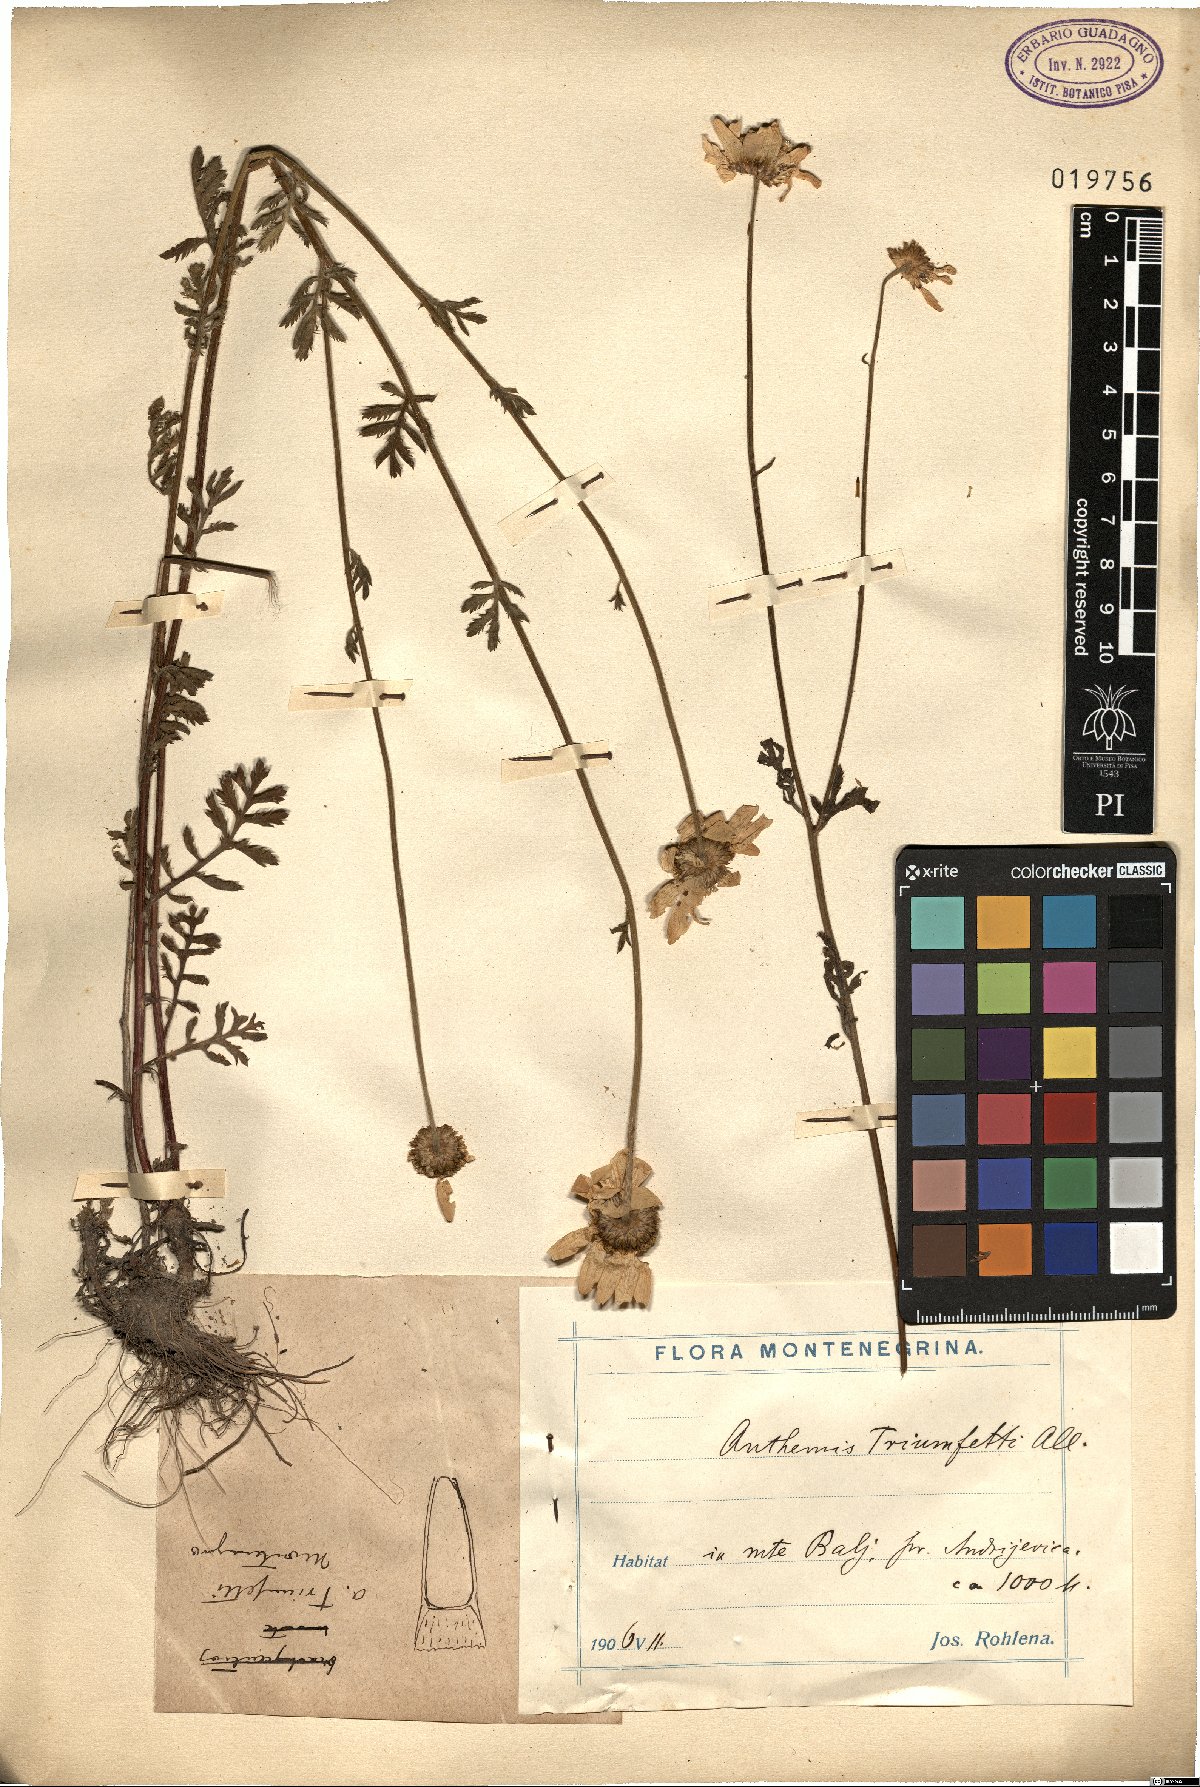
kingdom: Plantae
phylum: Tracheophyta
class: Magnoliopsida
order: Asterales
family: Asteraceae
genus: Cota
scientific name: Cota triumfetti
